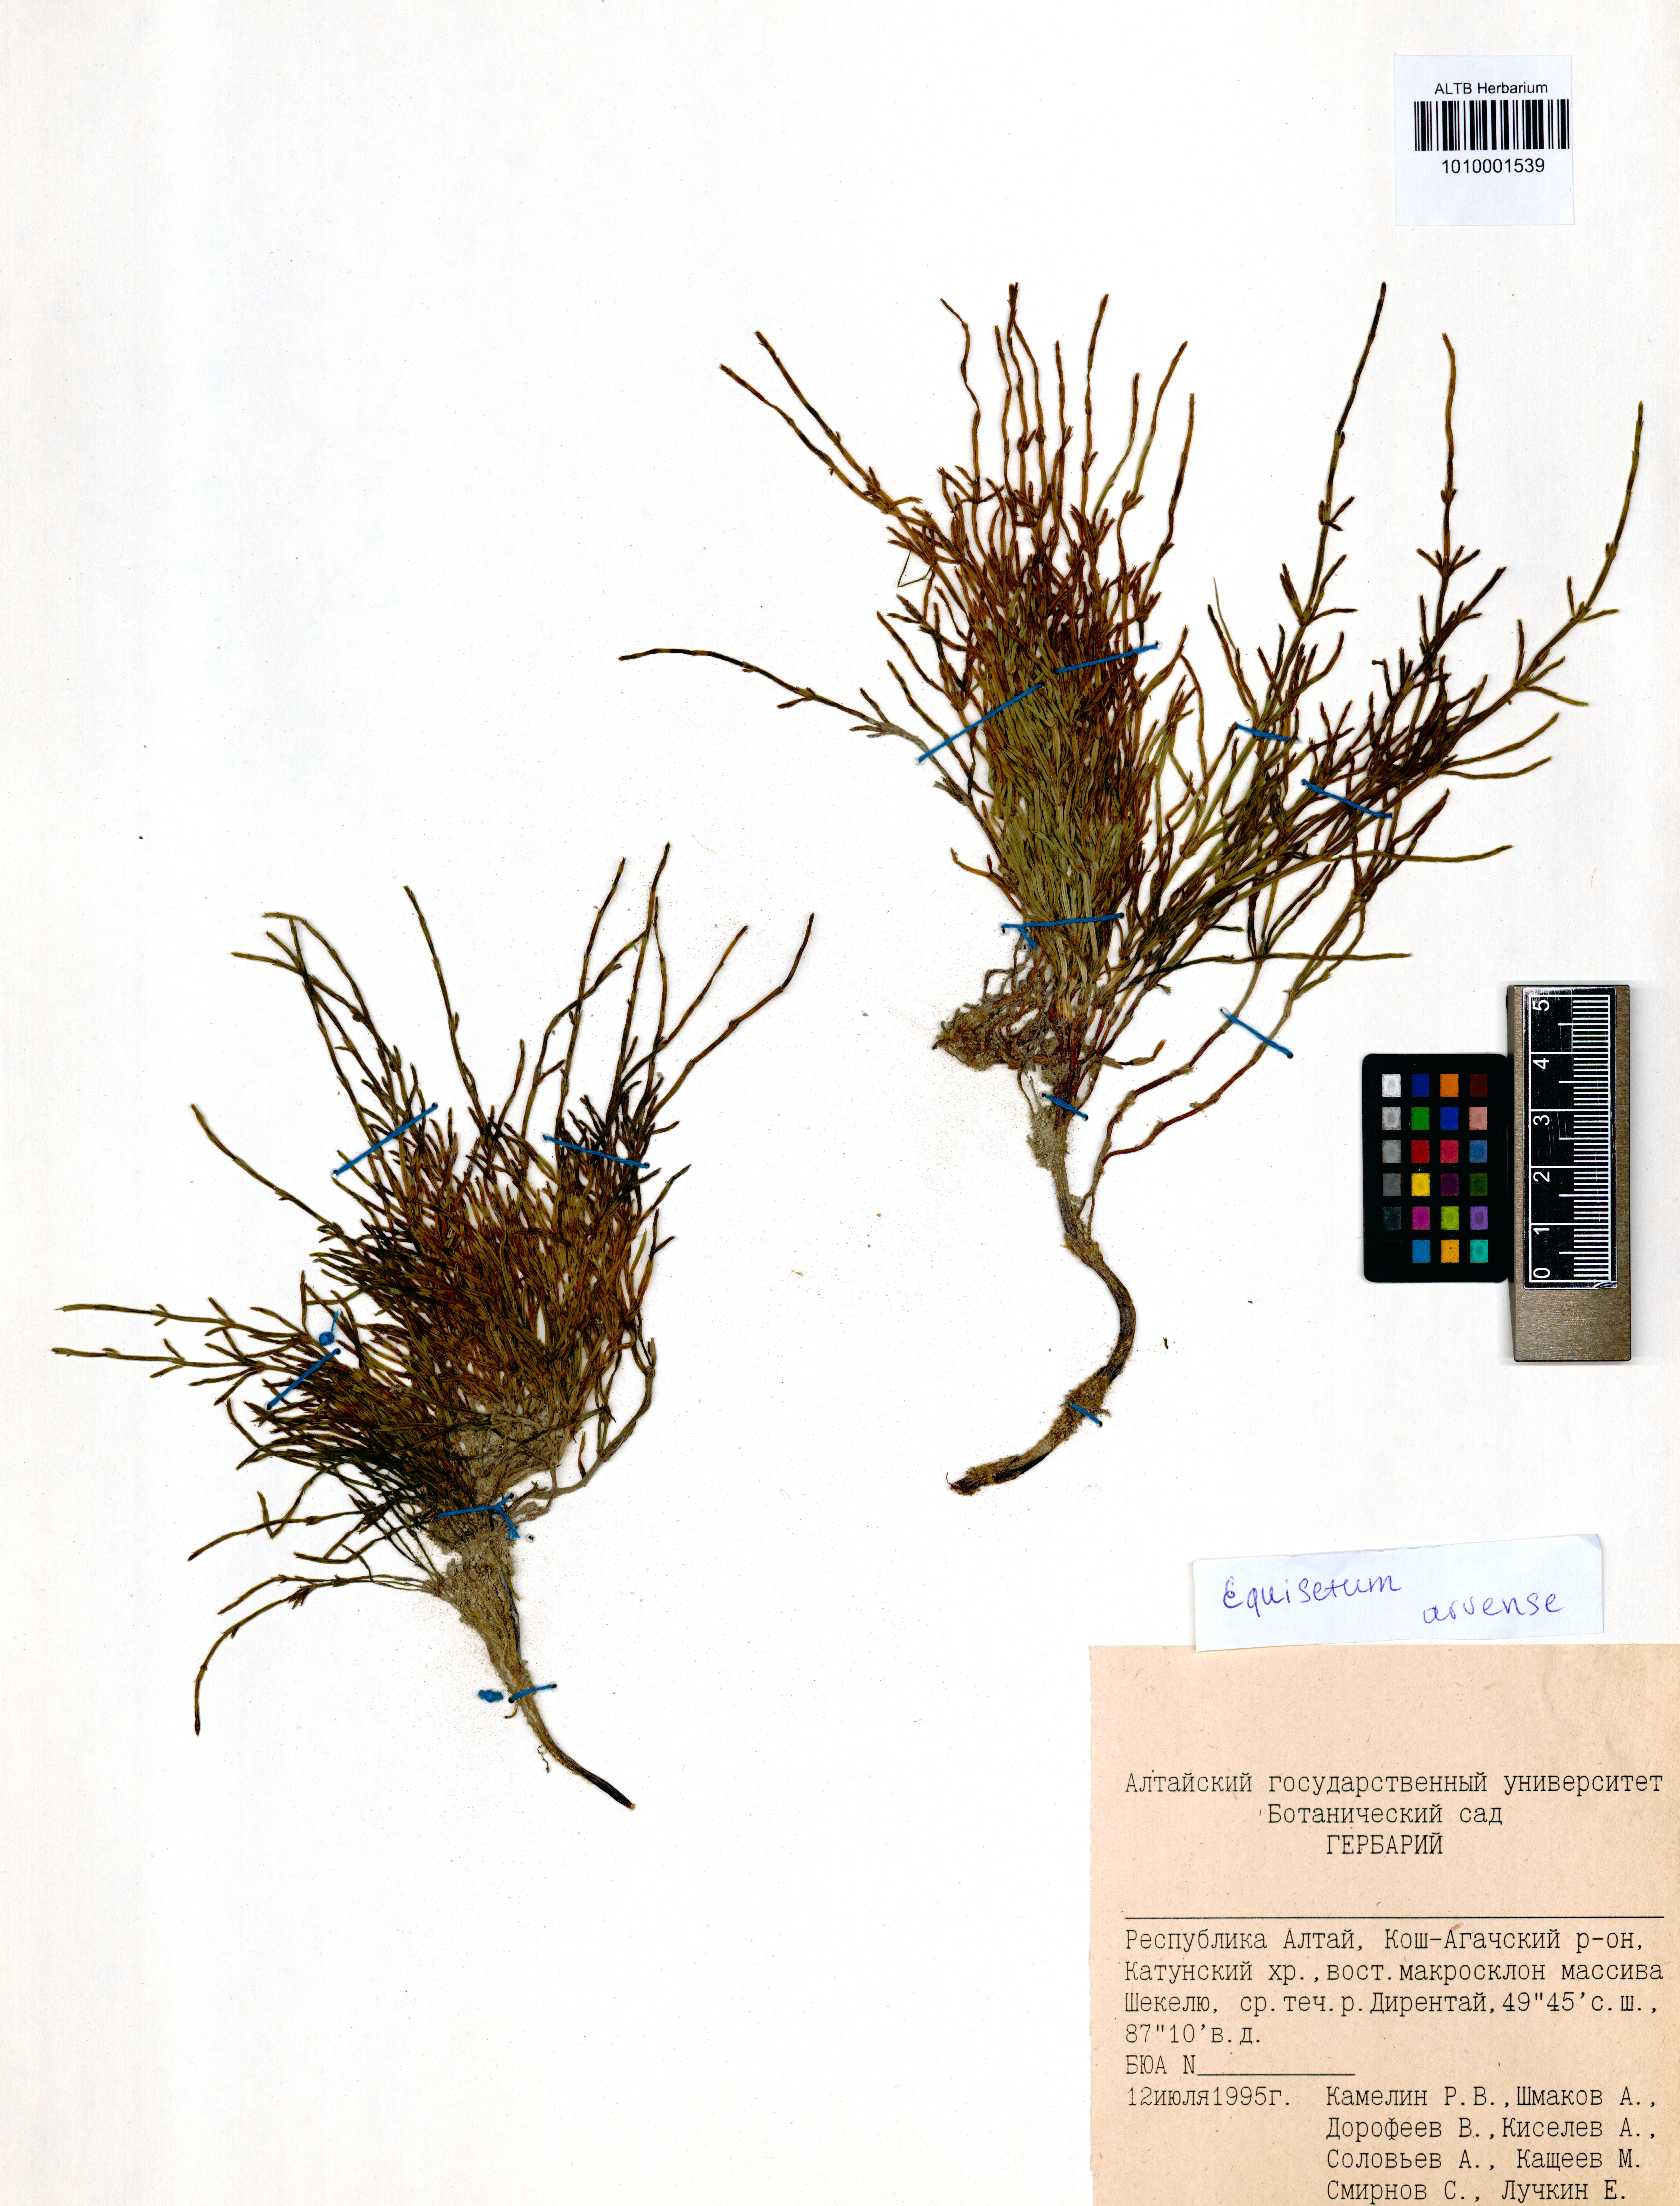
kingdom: Plantae
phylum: Tracheophyta
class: Polypodiopsida
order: Equisetales
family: Equisetaceae
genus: Equisetum
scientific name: Equisetum arvense
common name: Field horsetail
